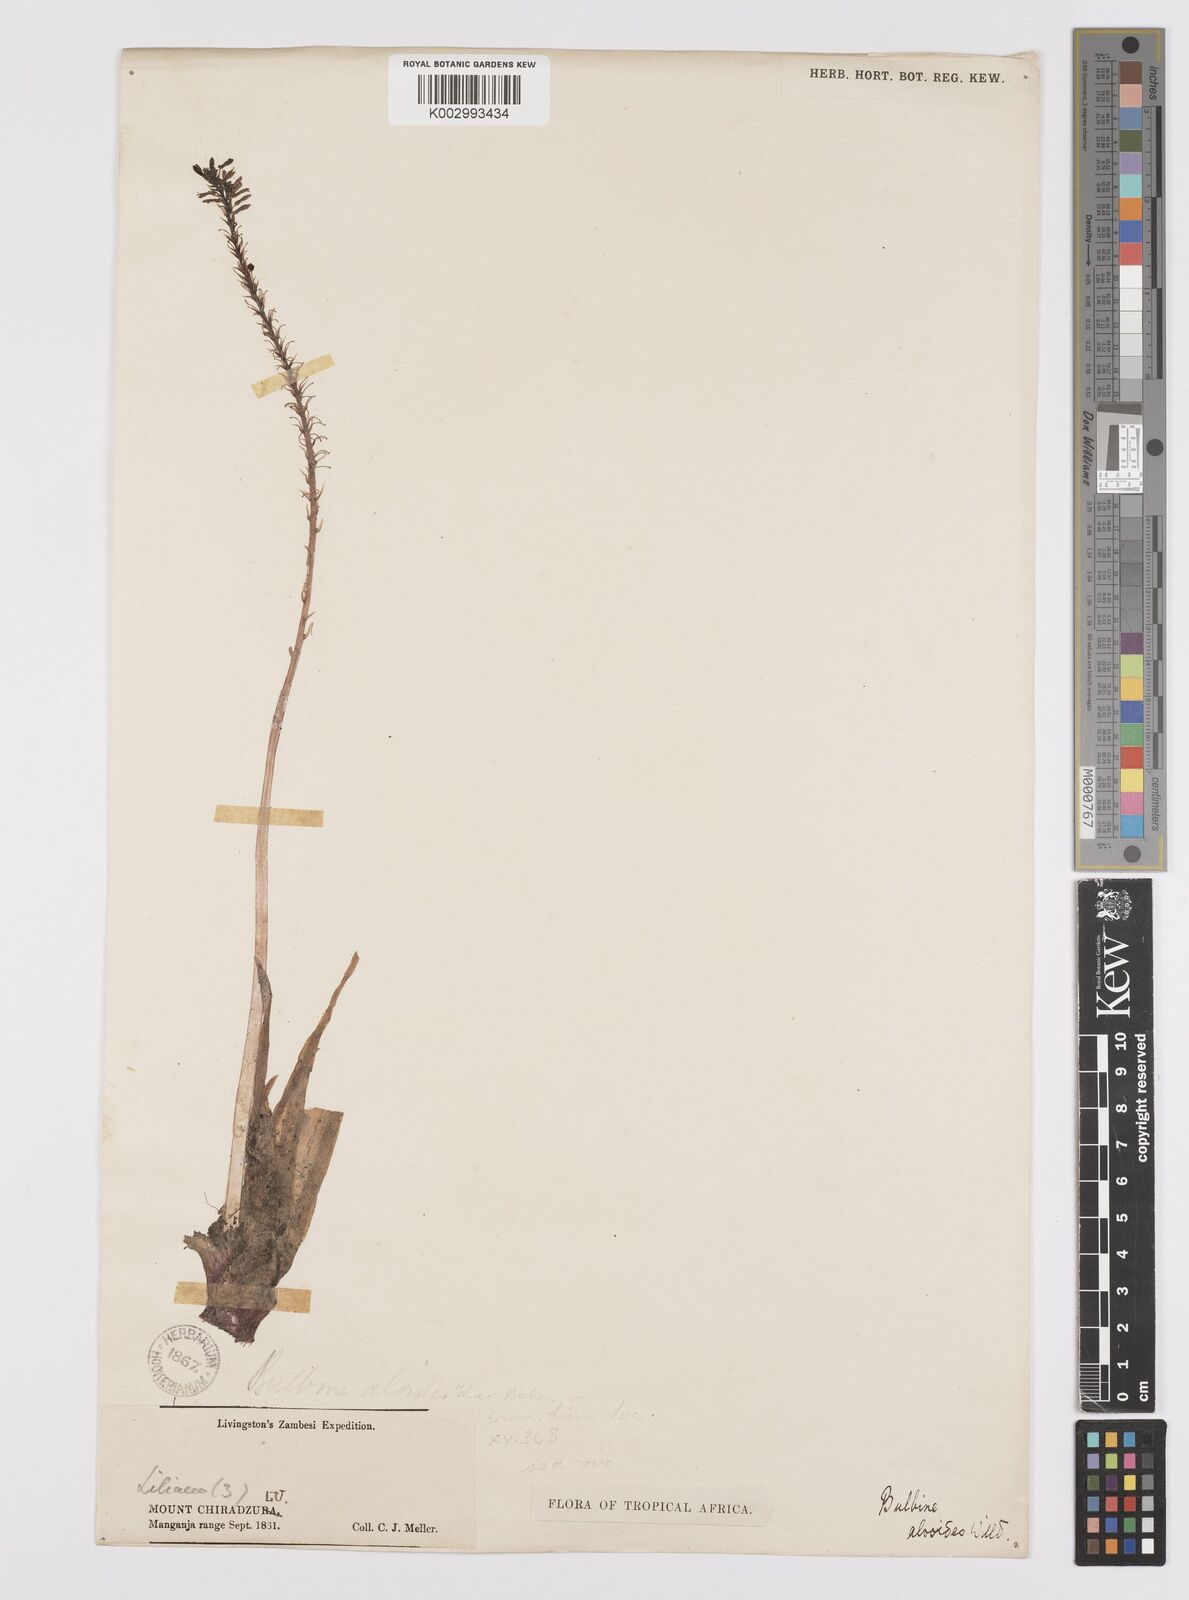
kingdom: Plantae
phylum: Tracheophyta
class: Liliopsida
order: Asparagales
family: Asphodelaceae
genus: Bulbine
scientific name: Bulbine
